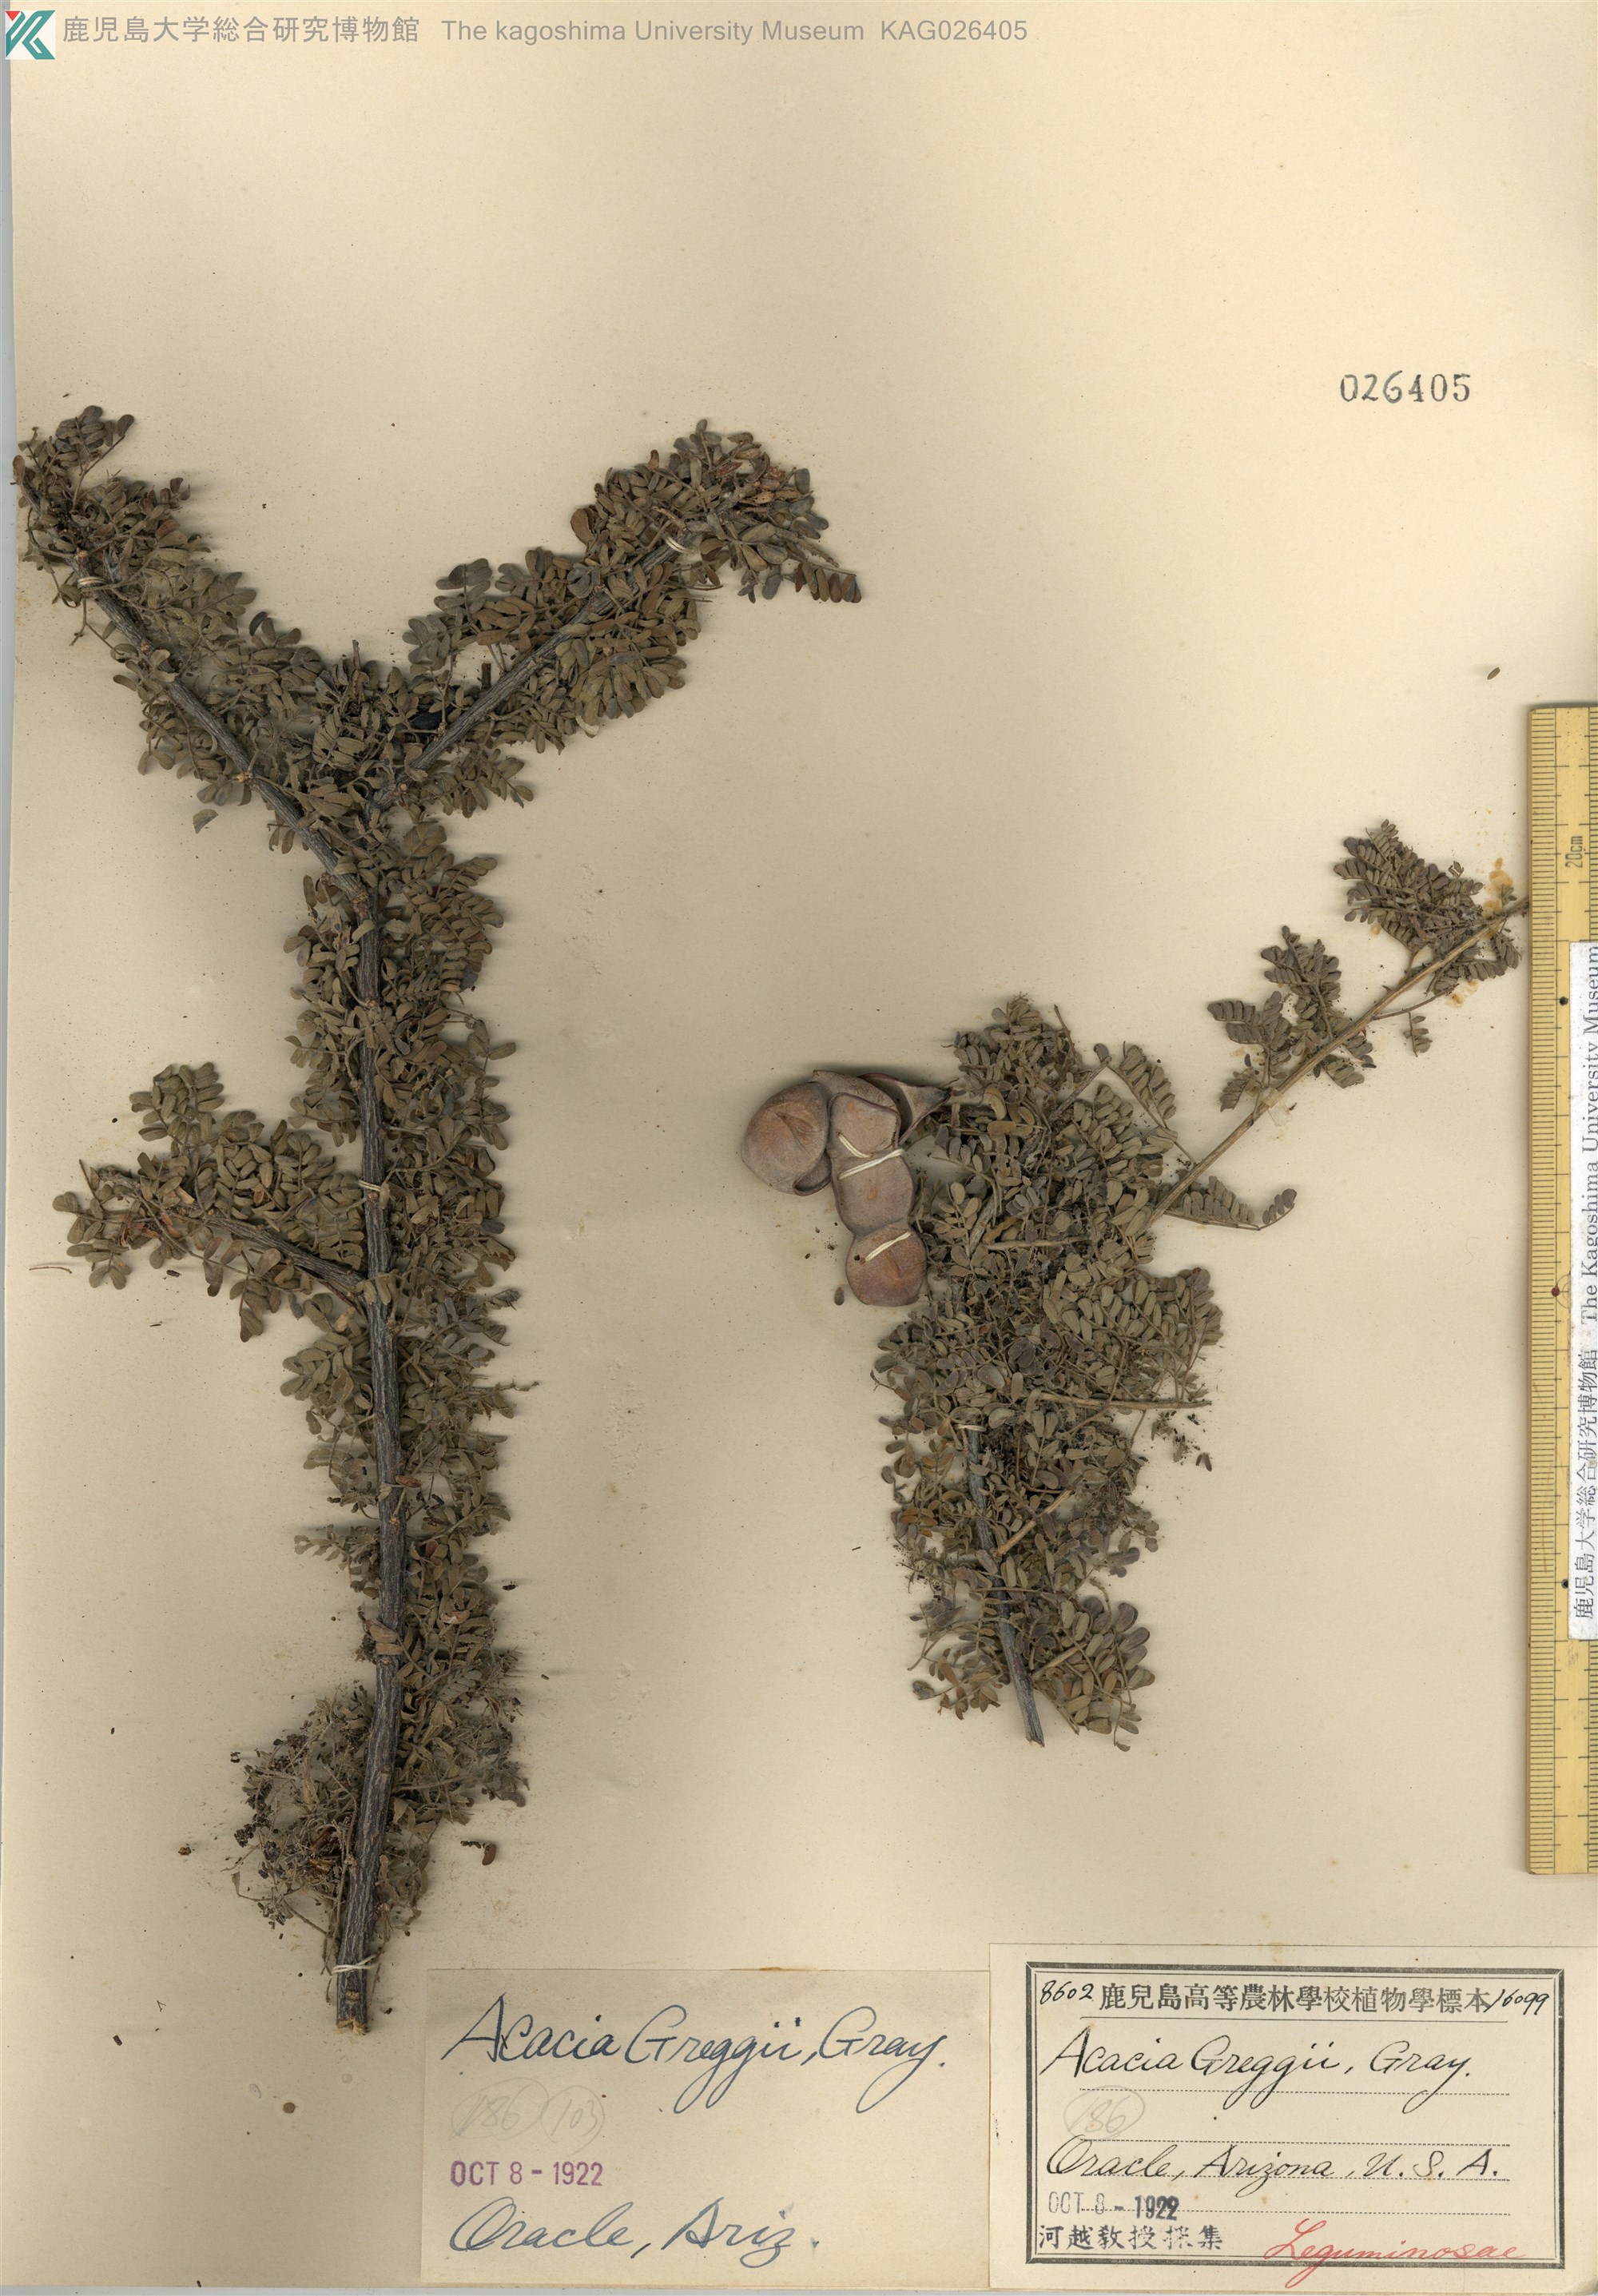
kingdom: Plantae
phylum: Tracheophyta
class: Magnoliopsida
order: Fabales
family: Fabaceae
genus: Senegalia
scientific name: Senegalia greggii
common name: Texas-mimosa
